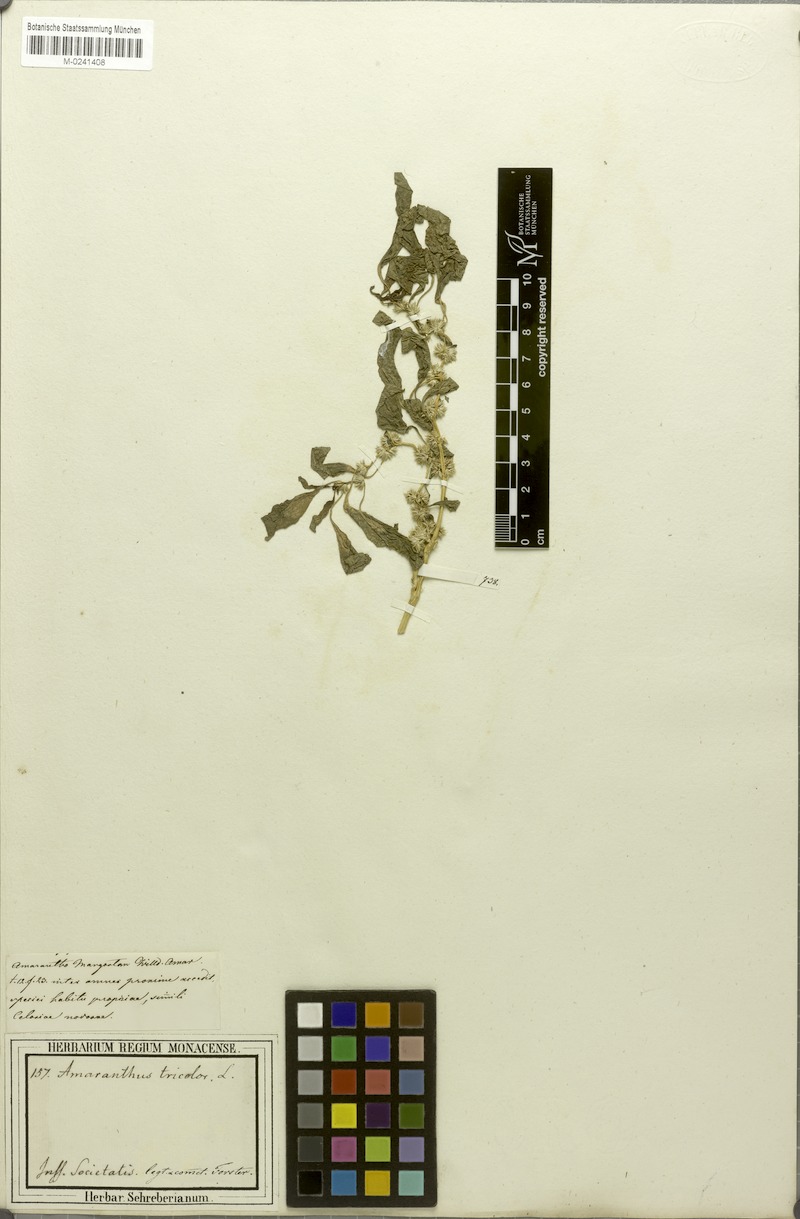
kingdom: Plantae
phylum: Tracheophyta
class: Magnoliopsida
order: Caryophyllales
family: Amaranthaceae
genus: Amaranthus
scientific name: Amaranthus tricolor
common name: Joseph's-coat
